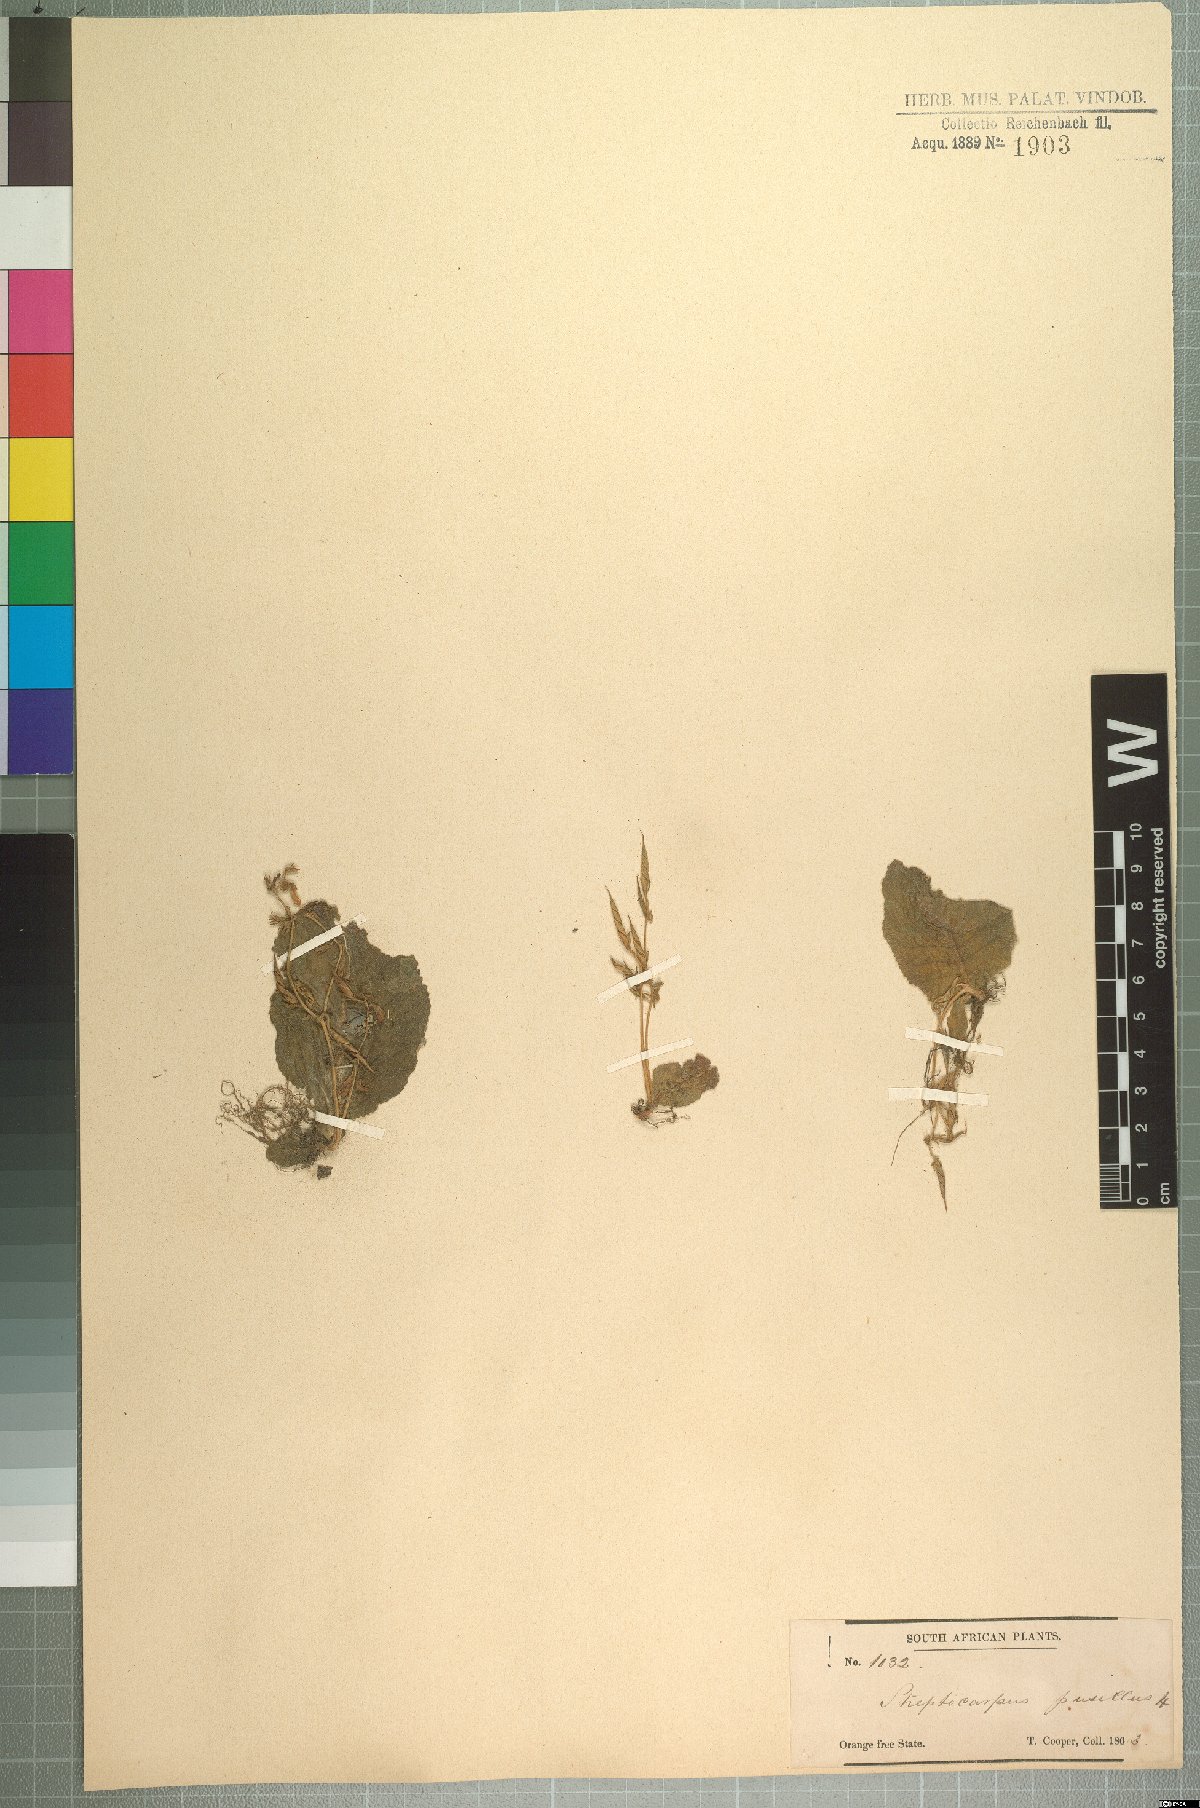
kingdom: Plantae
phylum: Tracheophyta
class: Magnoliopsida
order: Lamiales
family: Gesneriaceae
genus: Streptocarpus
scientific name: Streptocarpus pusillus
